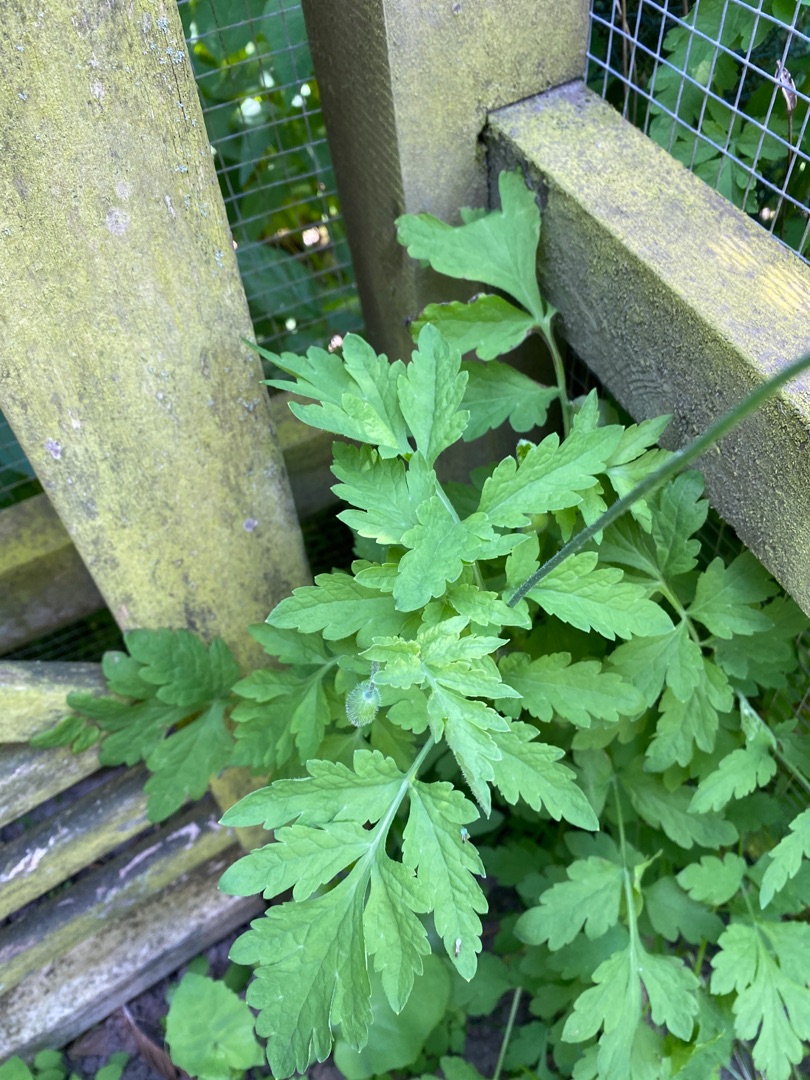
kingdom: Plantae
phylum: Tracheophyta
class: Magnoliopsida
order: Ranunculales
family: Papaveraceae
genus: Papaver
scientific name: Papaver cambricum
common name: Skov-valmue
